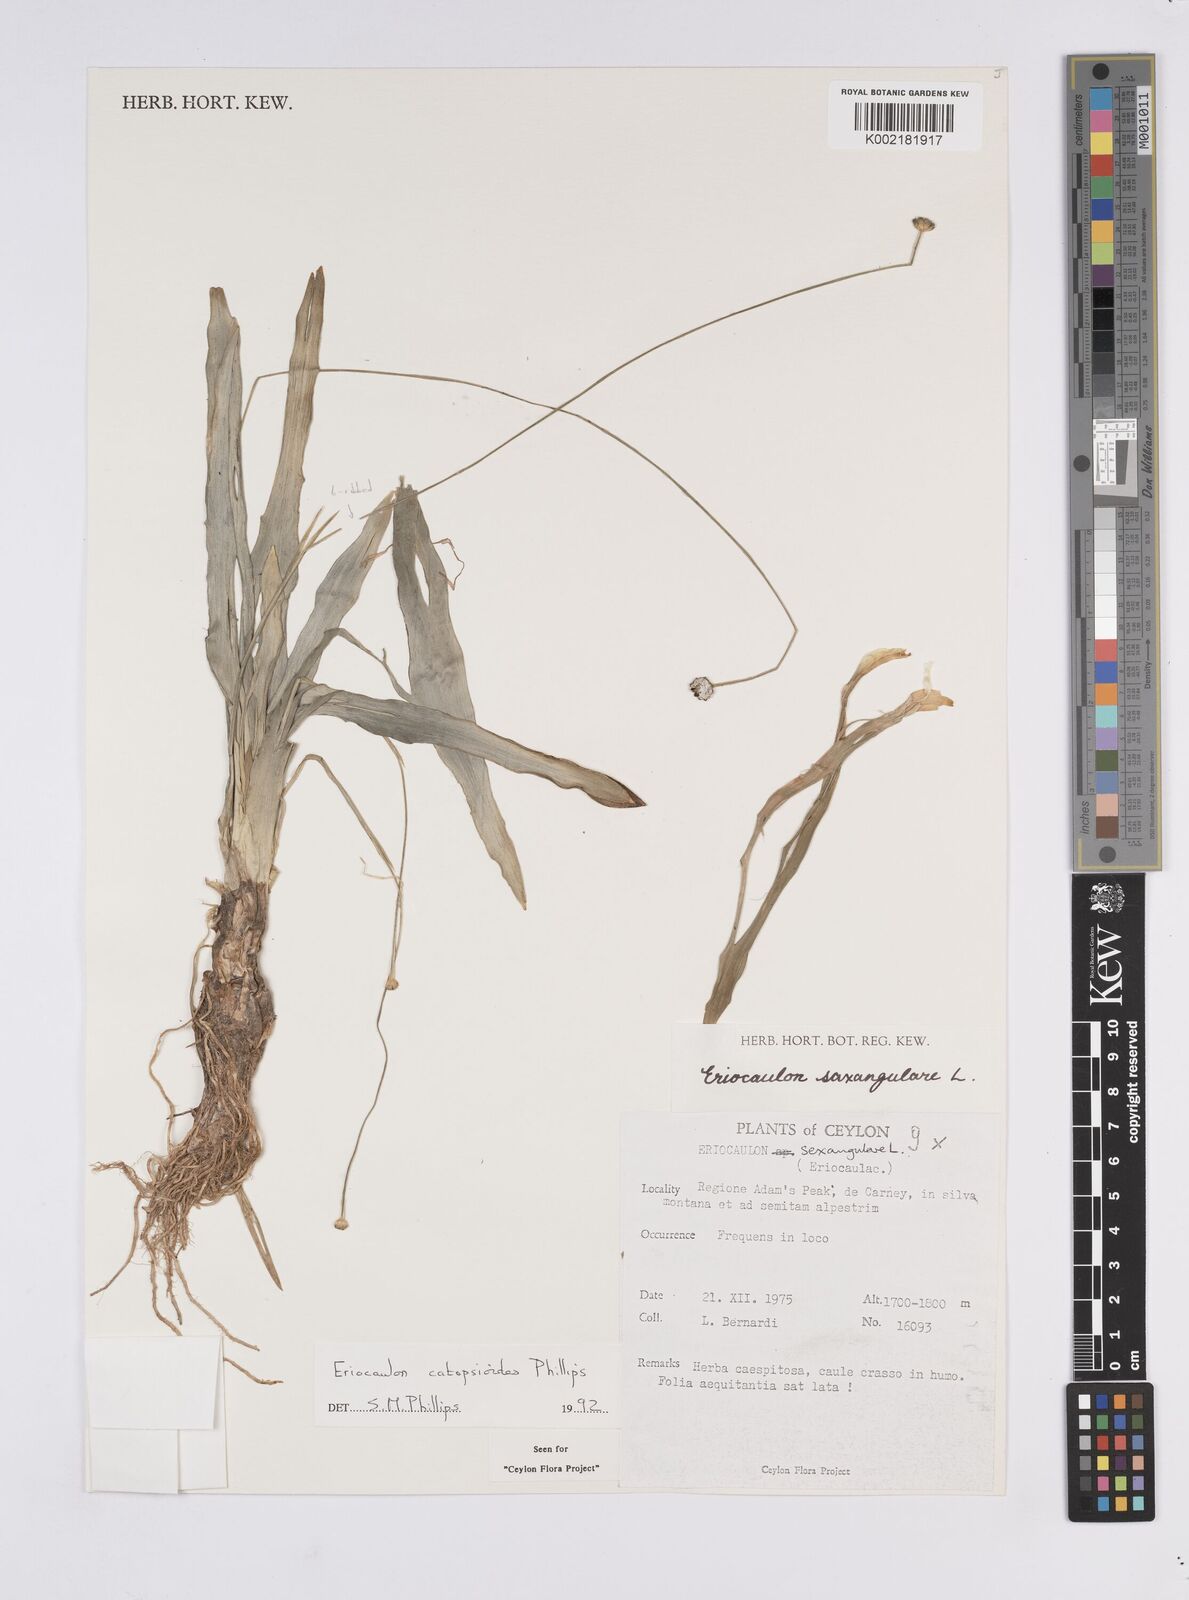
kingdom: Plantae
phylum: Tracheophyta
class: Liliopsida
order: Poales
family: Eriocaulaceae
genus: Eriocaulon
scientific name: Eriocaulon catopsioides
